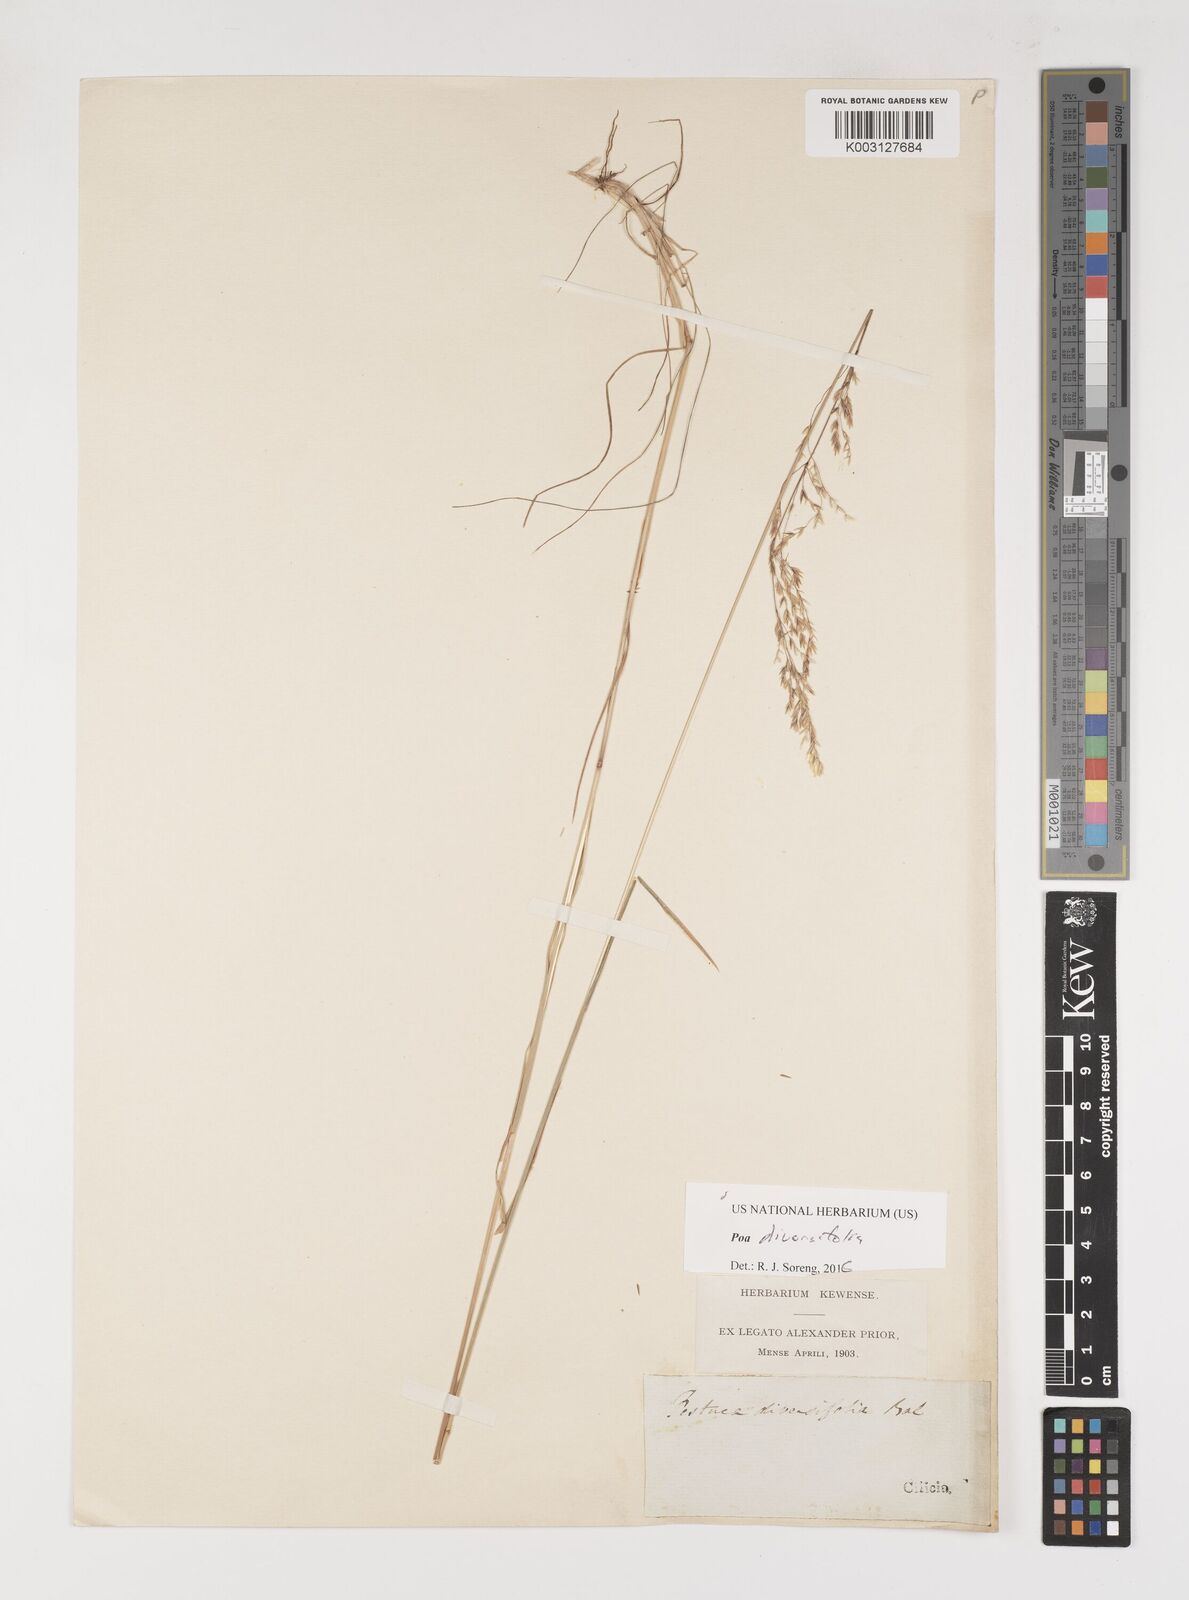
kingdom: Plantae
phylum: Tracheophyta
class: Liliopsida
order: Poales
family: Poaceae
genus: Poa
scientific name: Poa diversifolia
